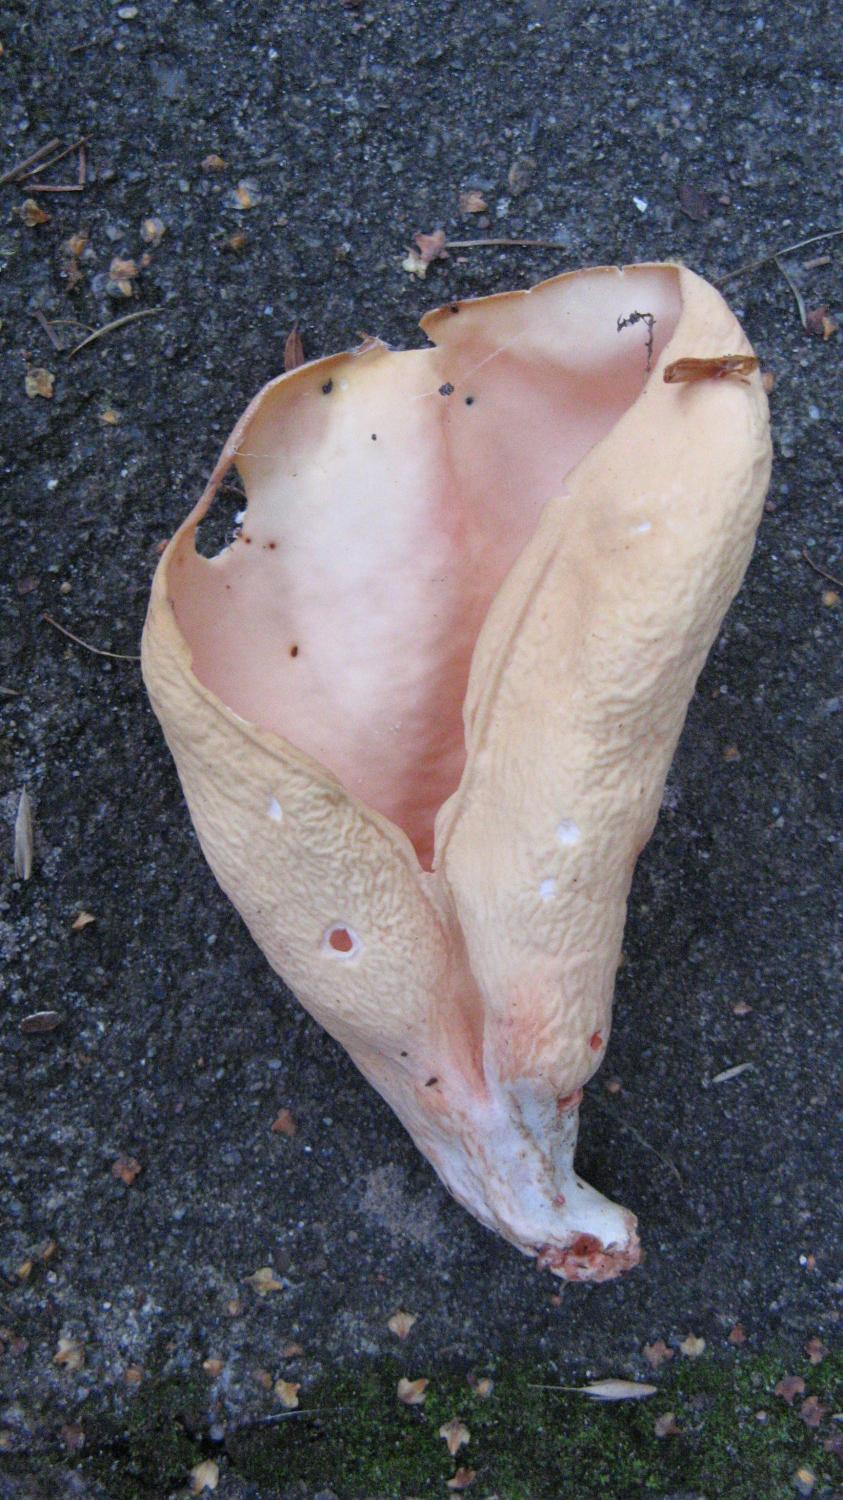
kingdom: Fungi
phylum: Ascomycota
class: Pezizomycetes
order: Pezizales
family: Otideaceae
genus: Otidea
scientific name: Otidea onotica
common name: æsel-ørebæger
